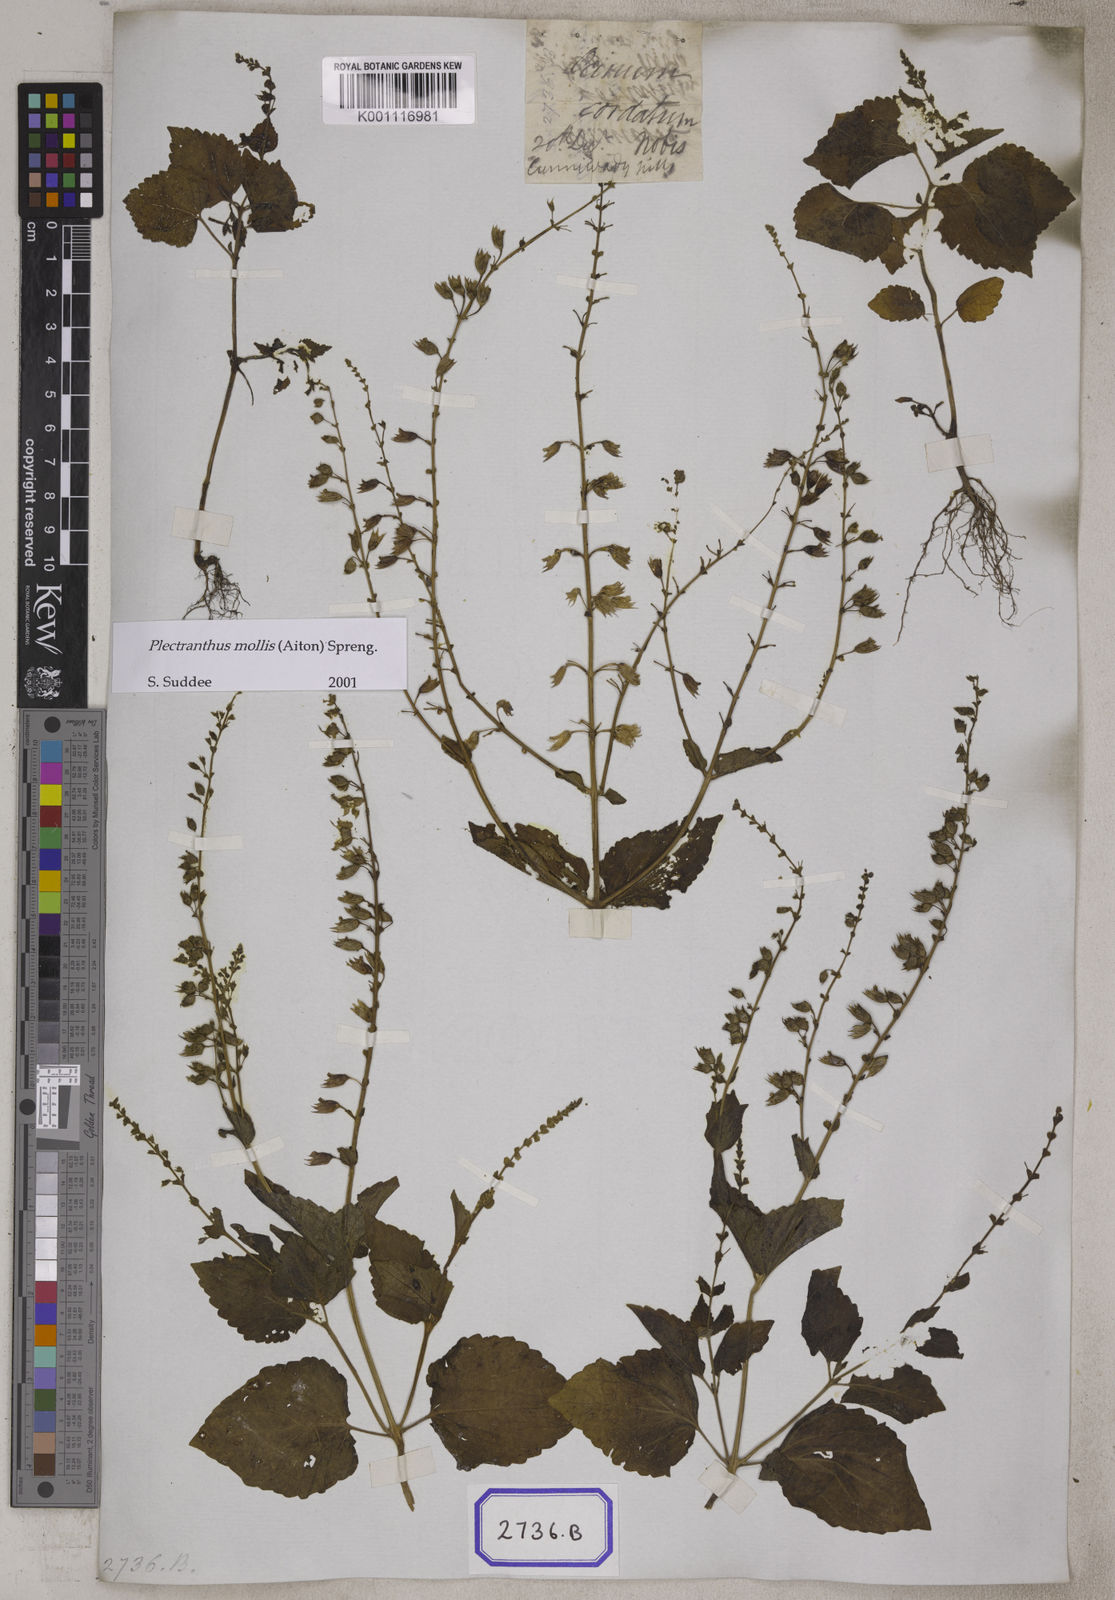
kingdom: Plantae
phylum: Tracheophyta
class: Magnoliopsida
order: Lamiales
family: Lamiaceae
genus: Equilabium
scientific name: Equilabium molle
